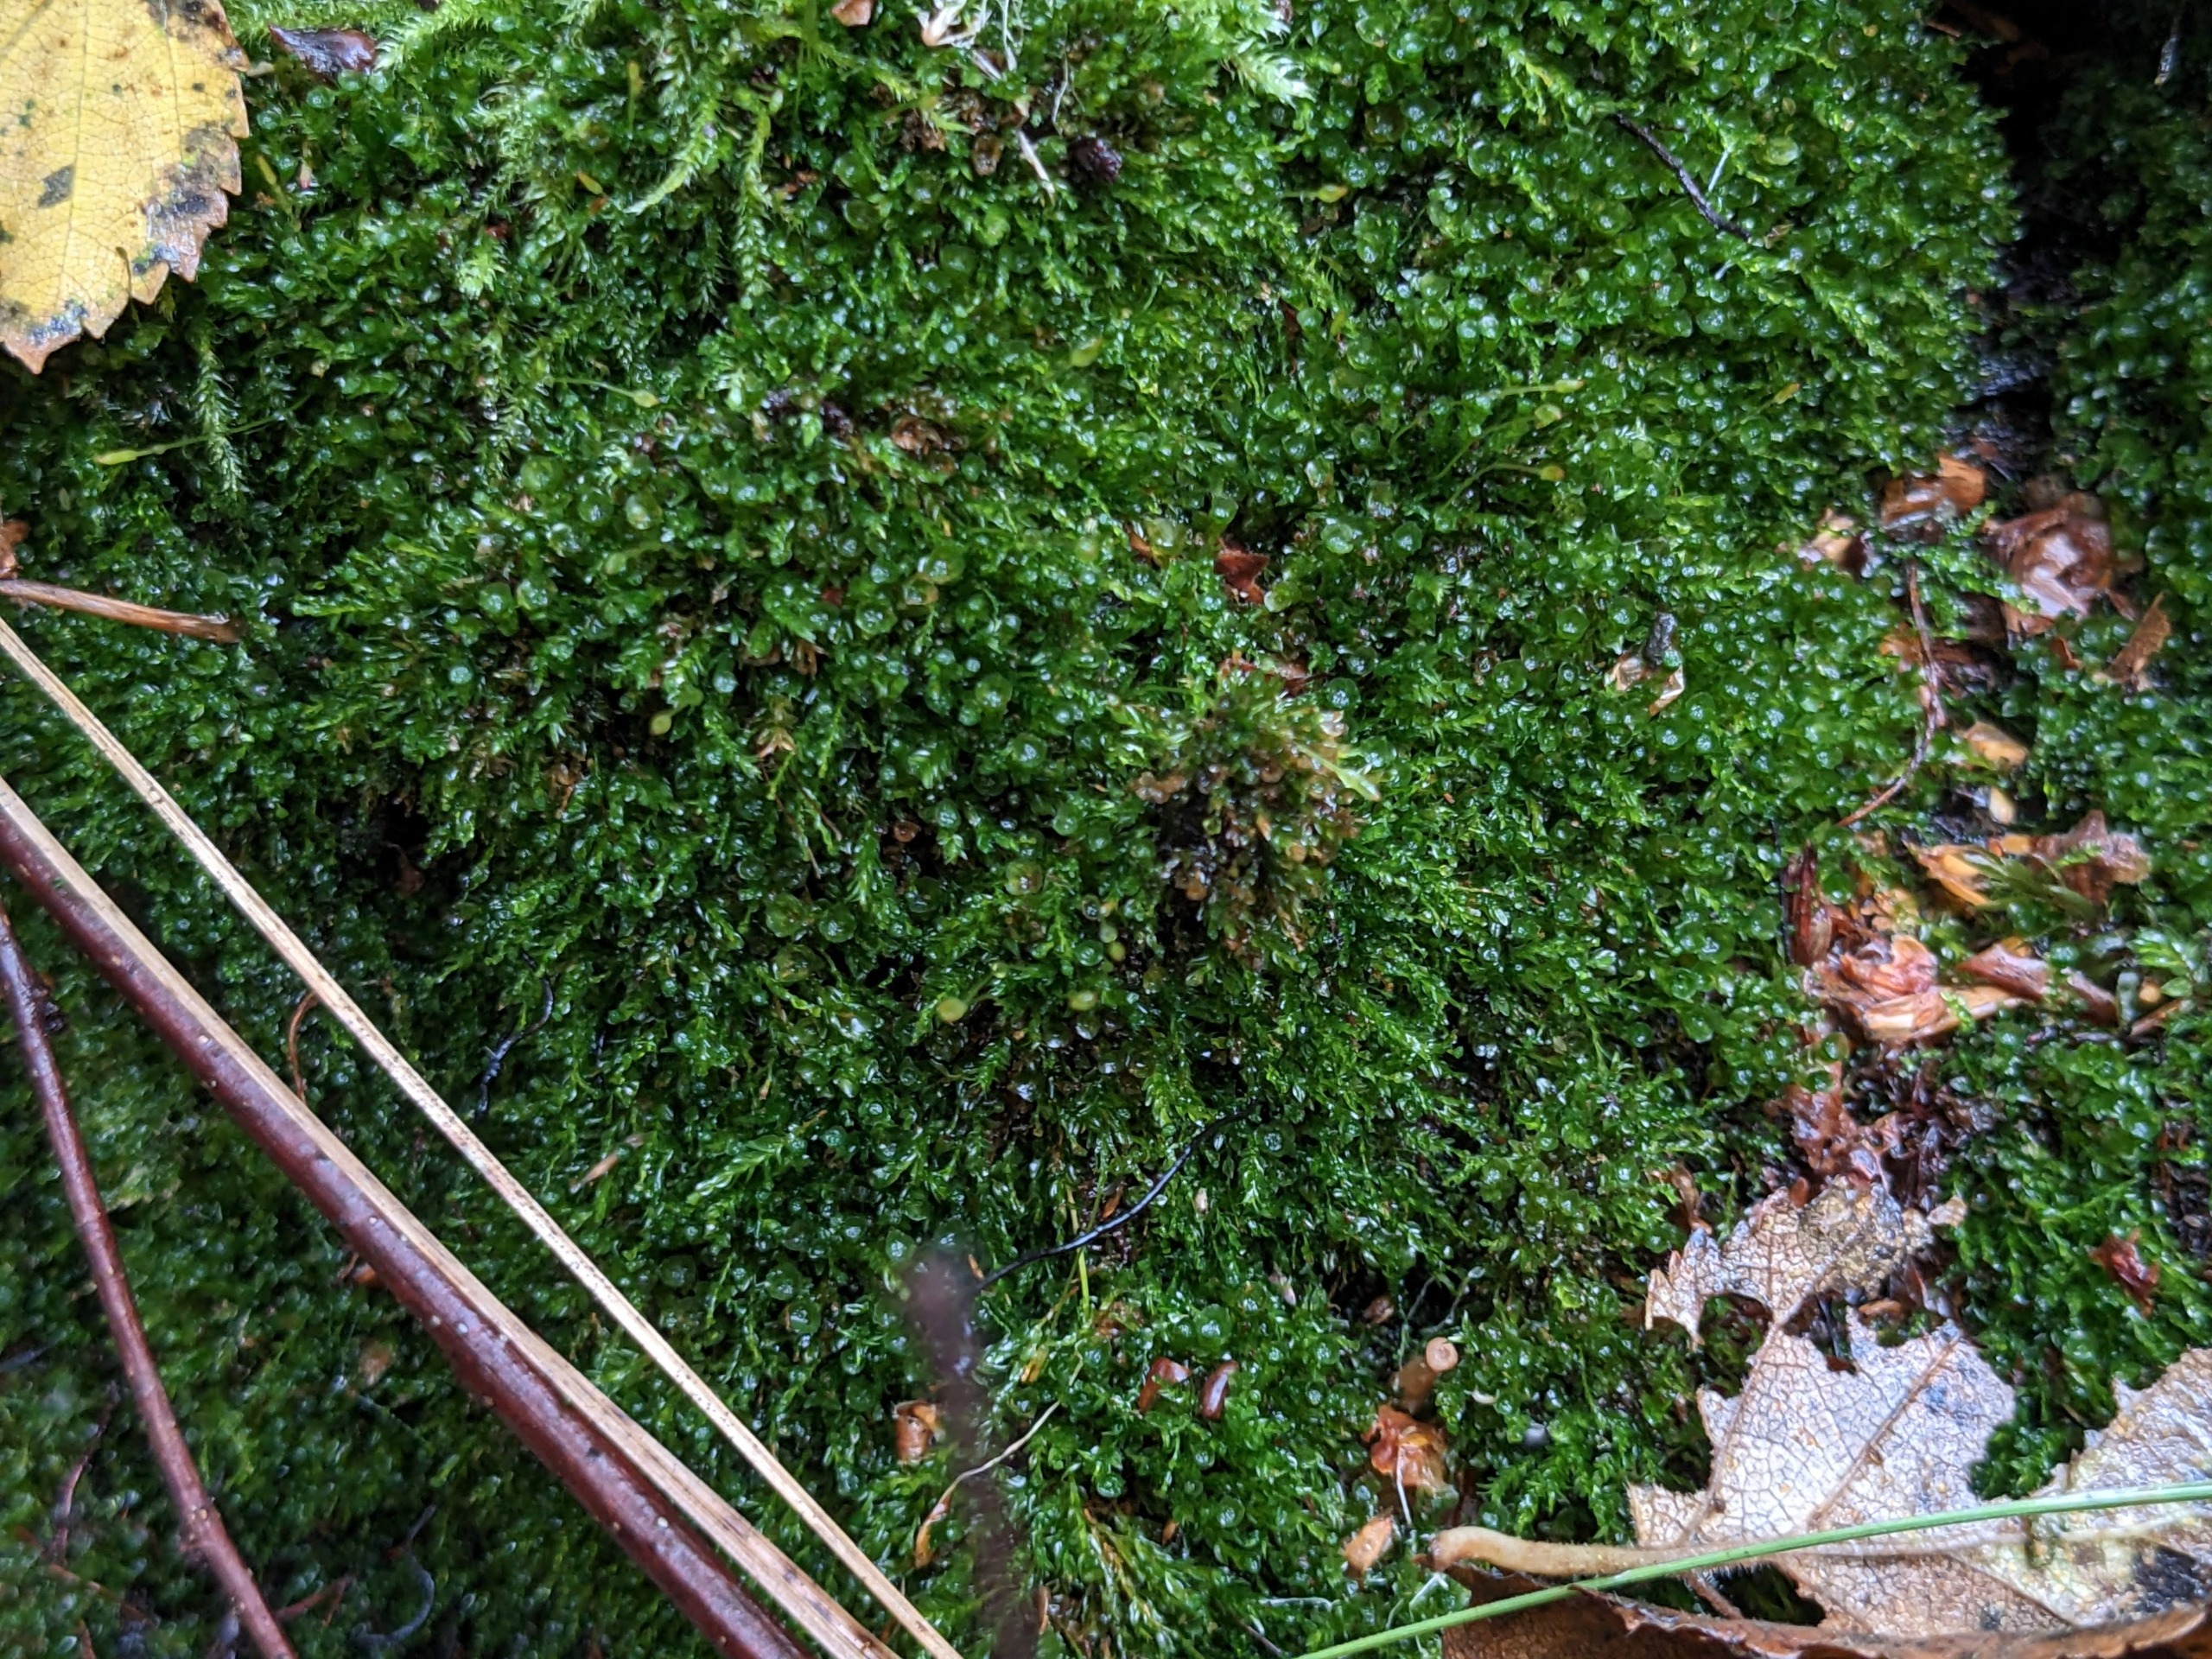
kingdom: Plantae
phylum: Bryophyta
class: Polytrichopsida
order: Tetraphidales
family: Tetraphidaceae
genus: Tetraphis
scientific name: Tetraphis pellucida
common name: Almindelig firtand
